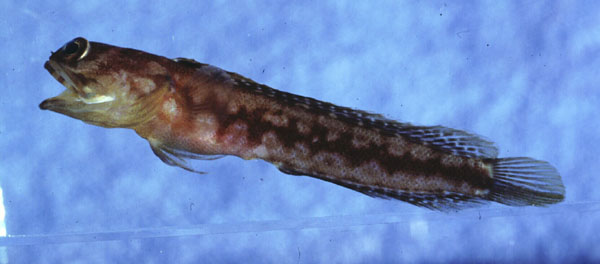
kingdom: Animalia
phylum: Chordata
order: Perciformes
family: Opistognathidae
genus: Opistognathus
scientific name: Opistognathus solorensis
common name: Solor jawfish
